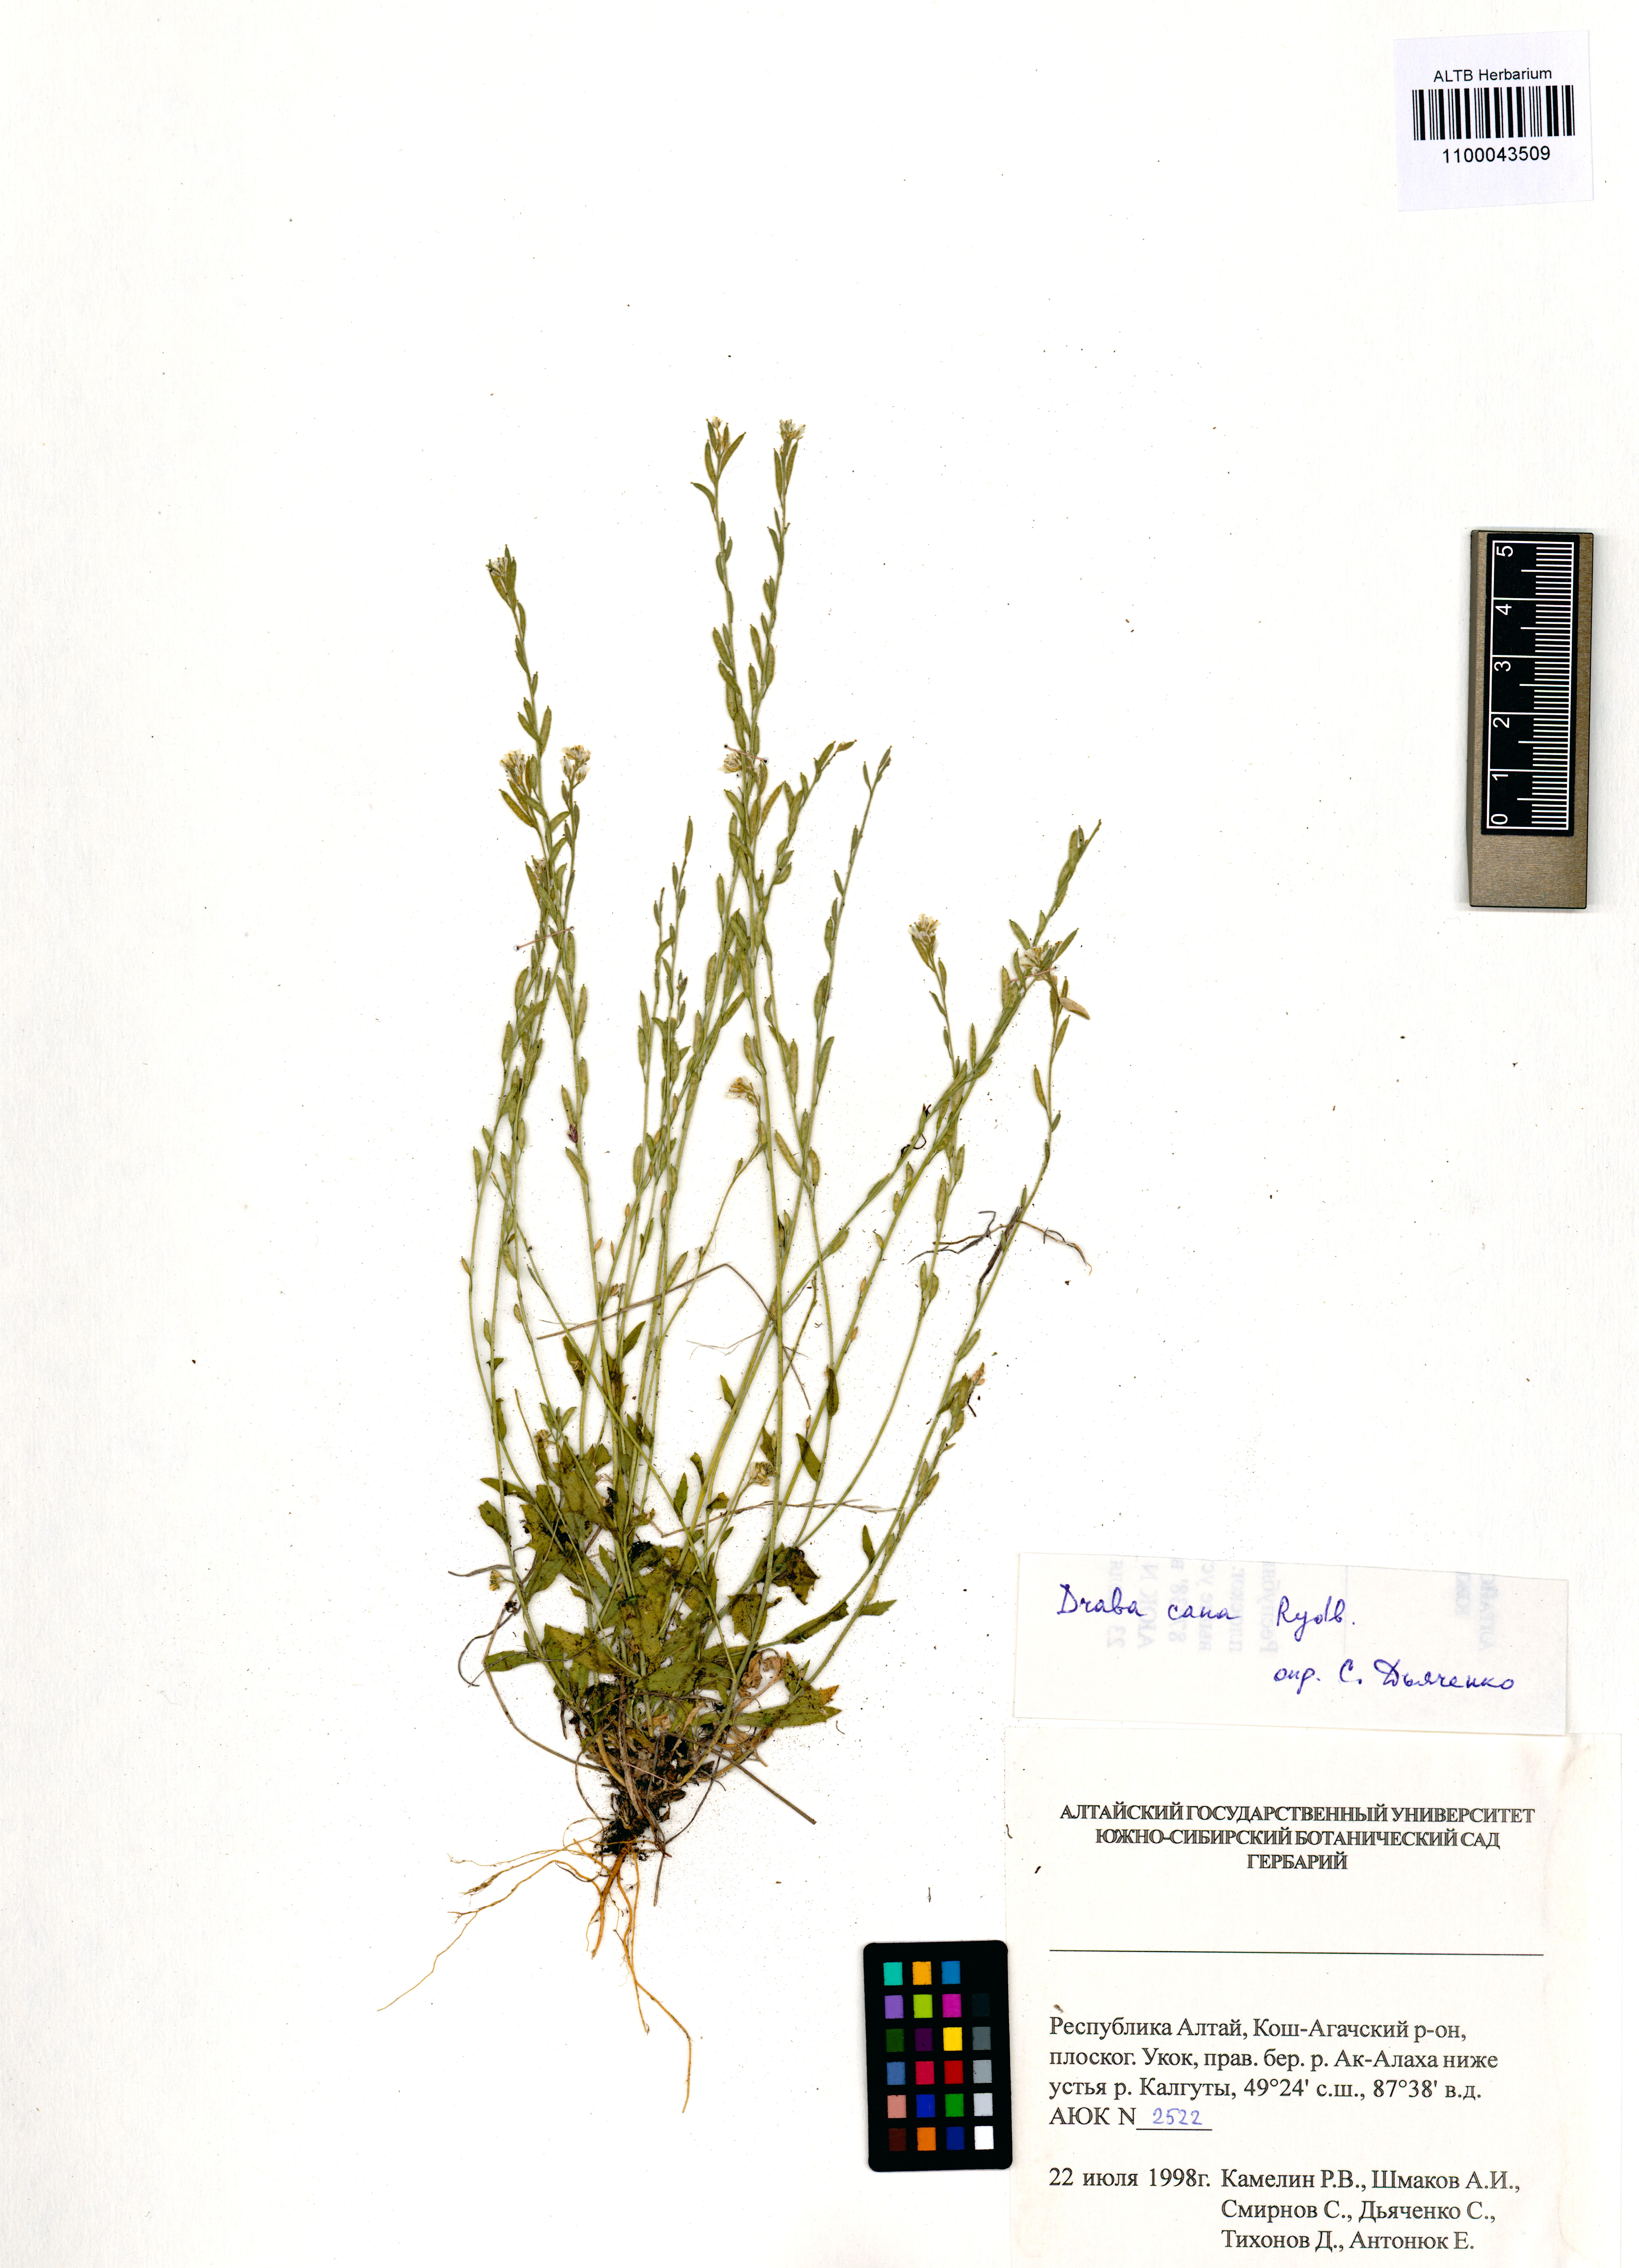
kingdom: Plantae
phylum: Tracheophyta
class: Magnoliopsida
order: Brassicales
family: Brassicaceae
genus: Draba
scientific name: Draba cana
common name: Hoary draba
